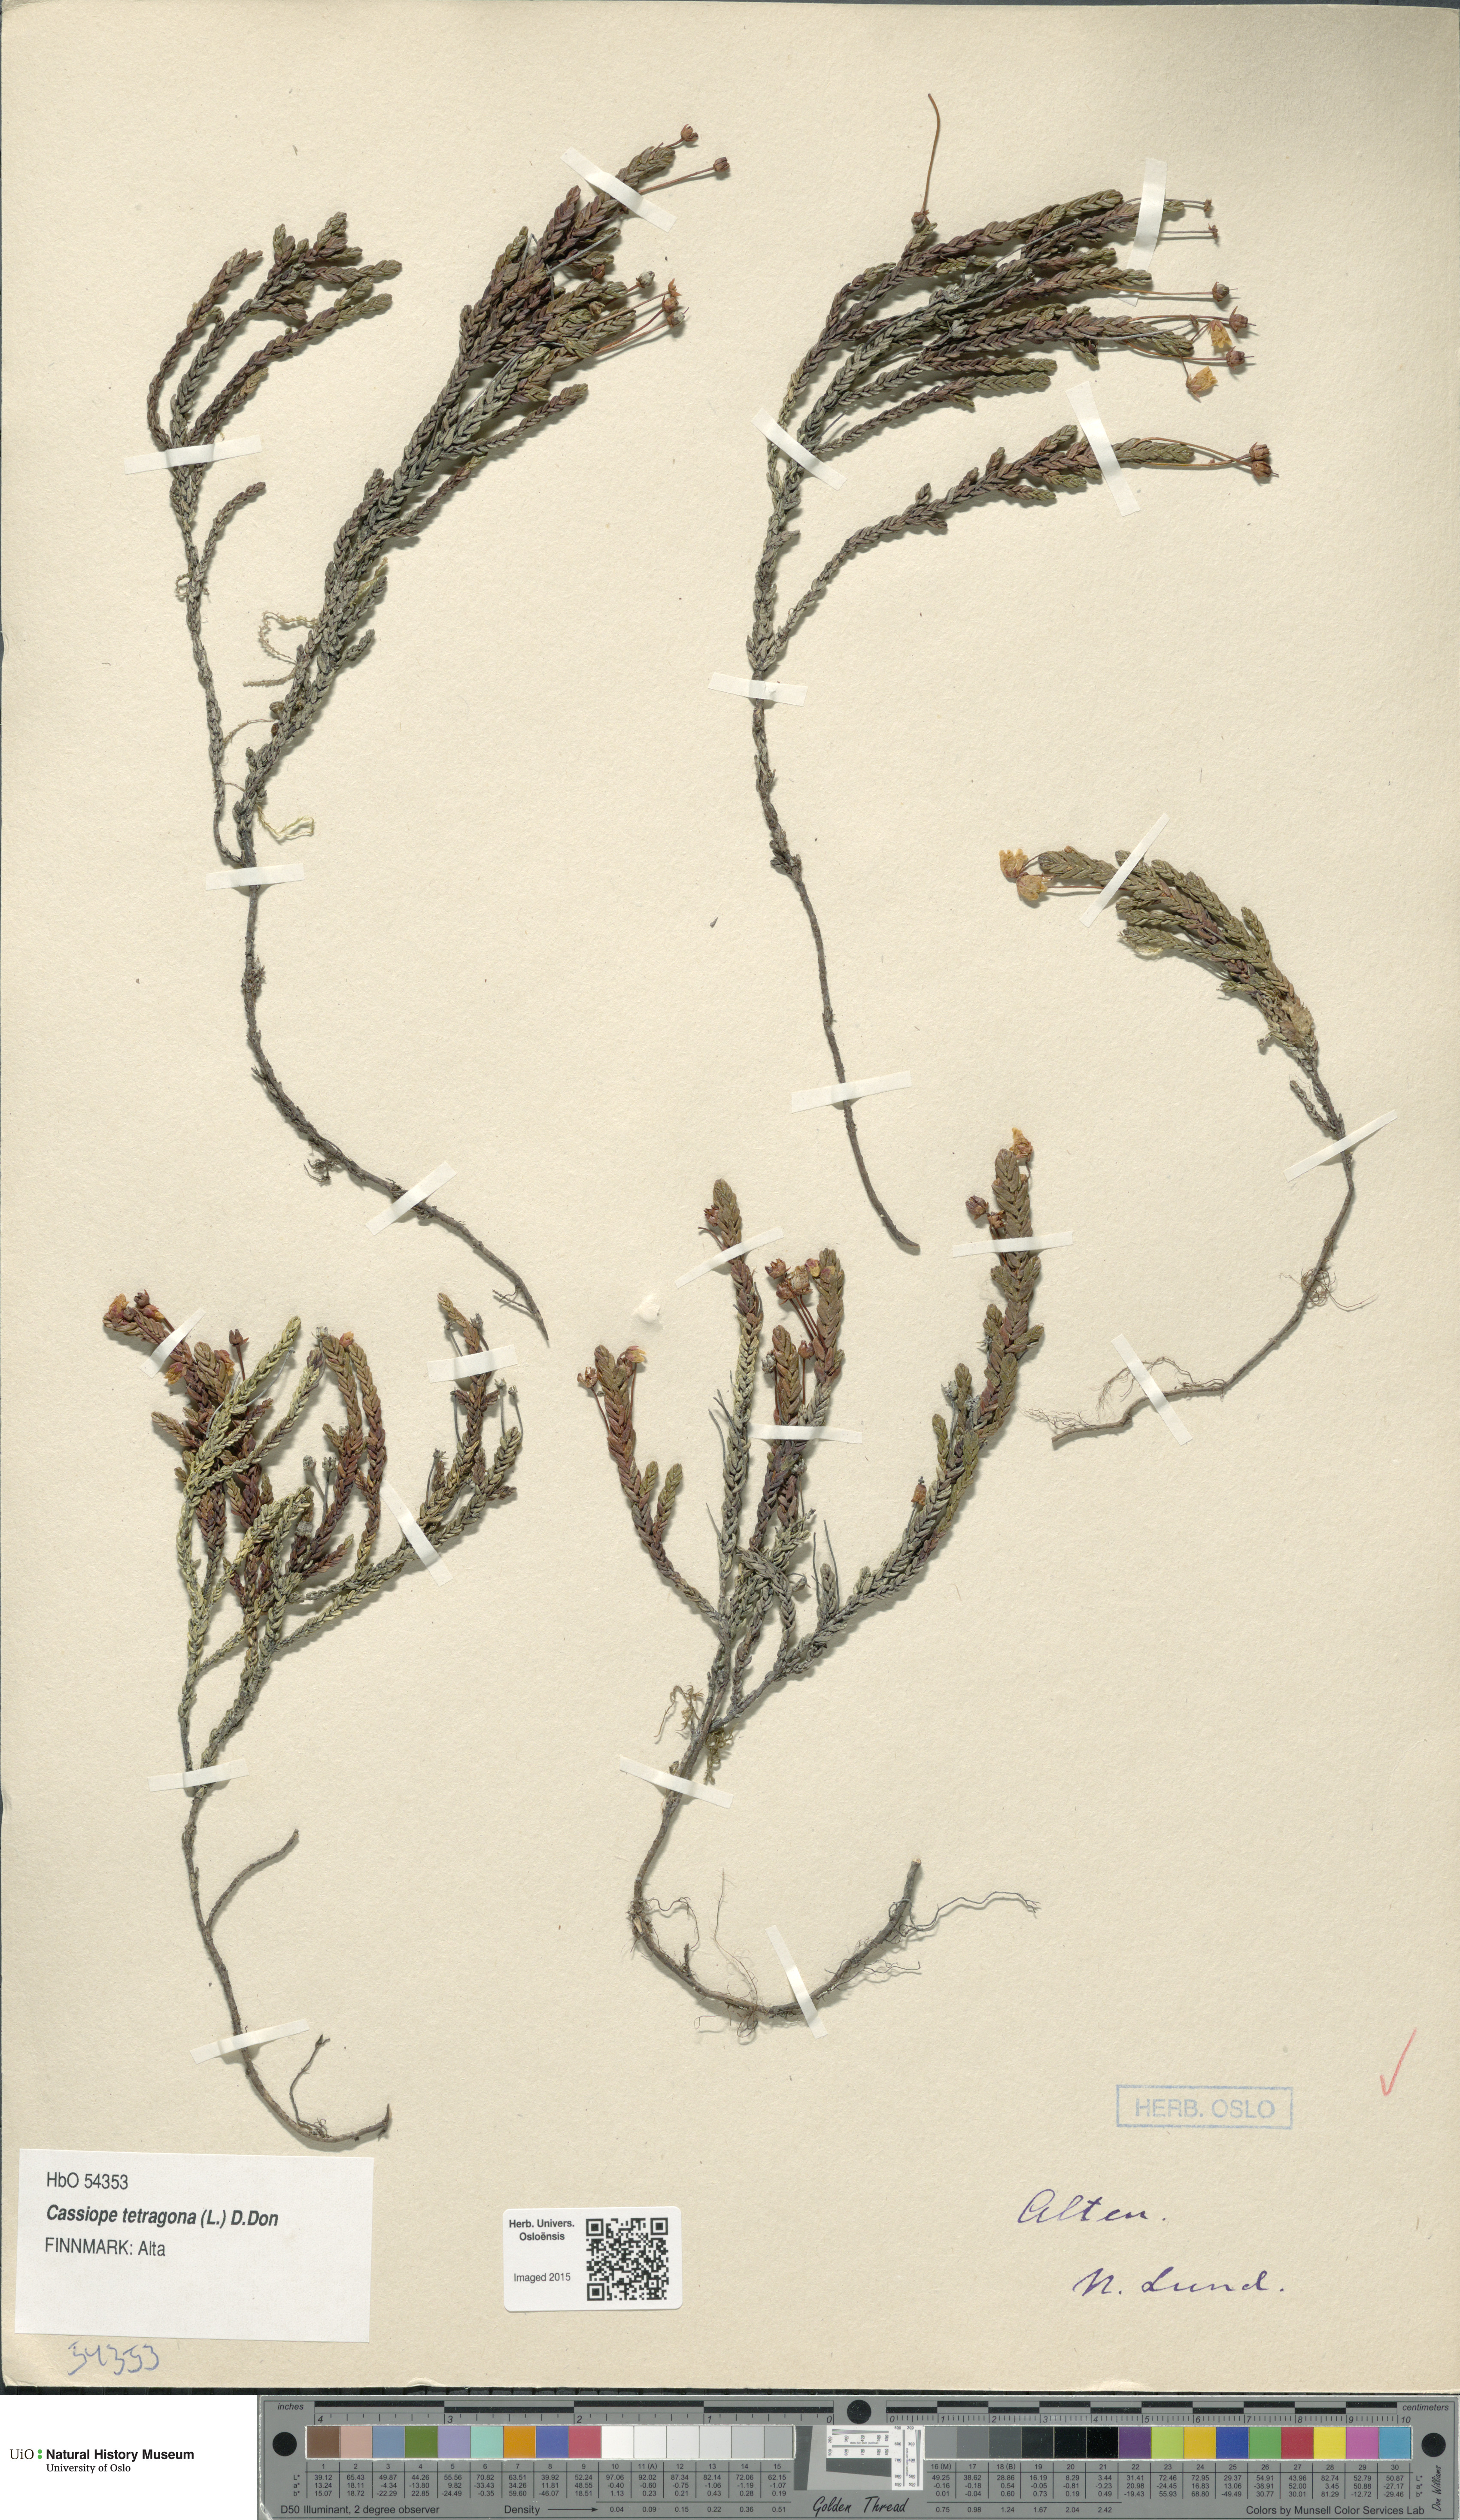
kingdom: Plantae
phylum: Tracheophyta
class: Magnoliopsida
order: Ericales
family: Ericaceae
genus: Cassiope
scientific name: Cassiope tetragona
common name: Arctic bell heather
